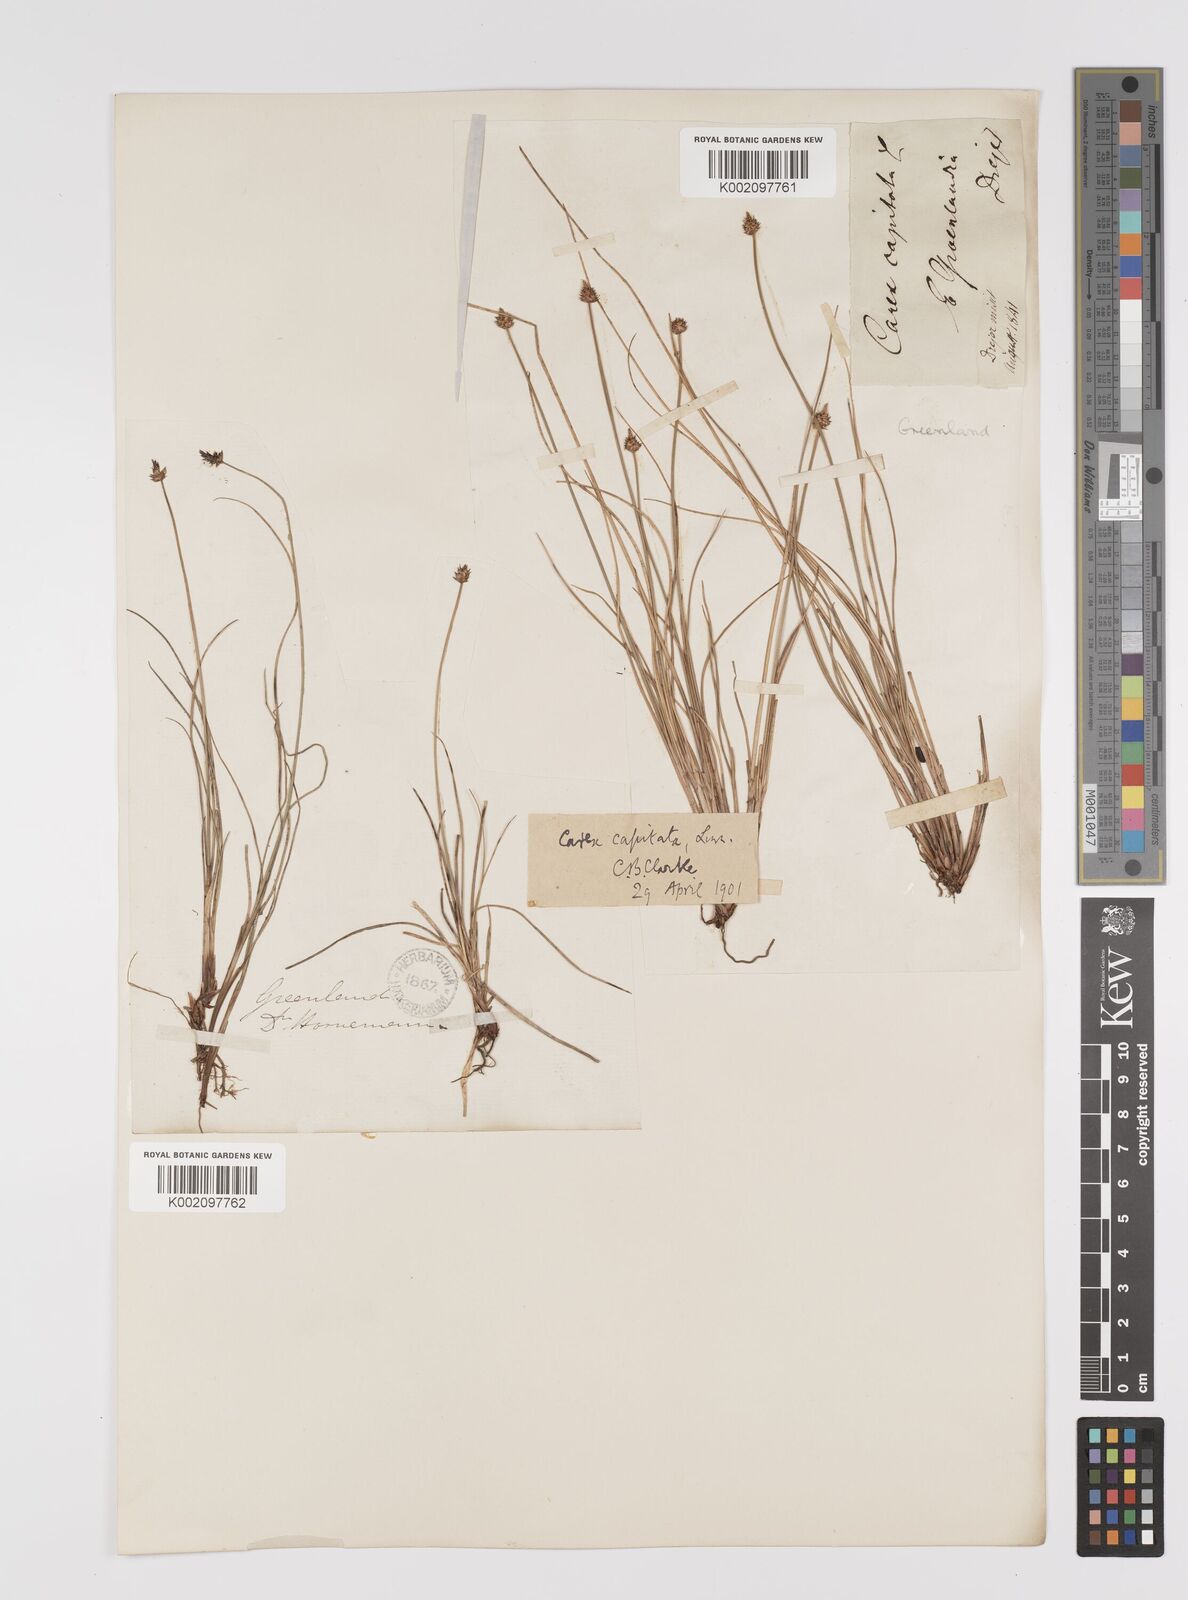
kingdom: Plantae
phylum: Tracheophyta
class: Liliopsida
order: Poales
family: Cyperaceae
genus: Carex
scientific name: Carex capitata
